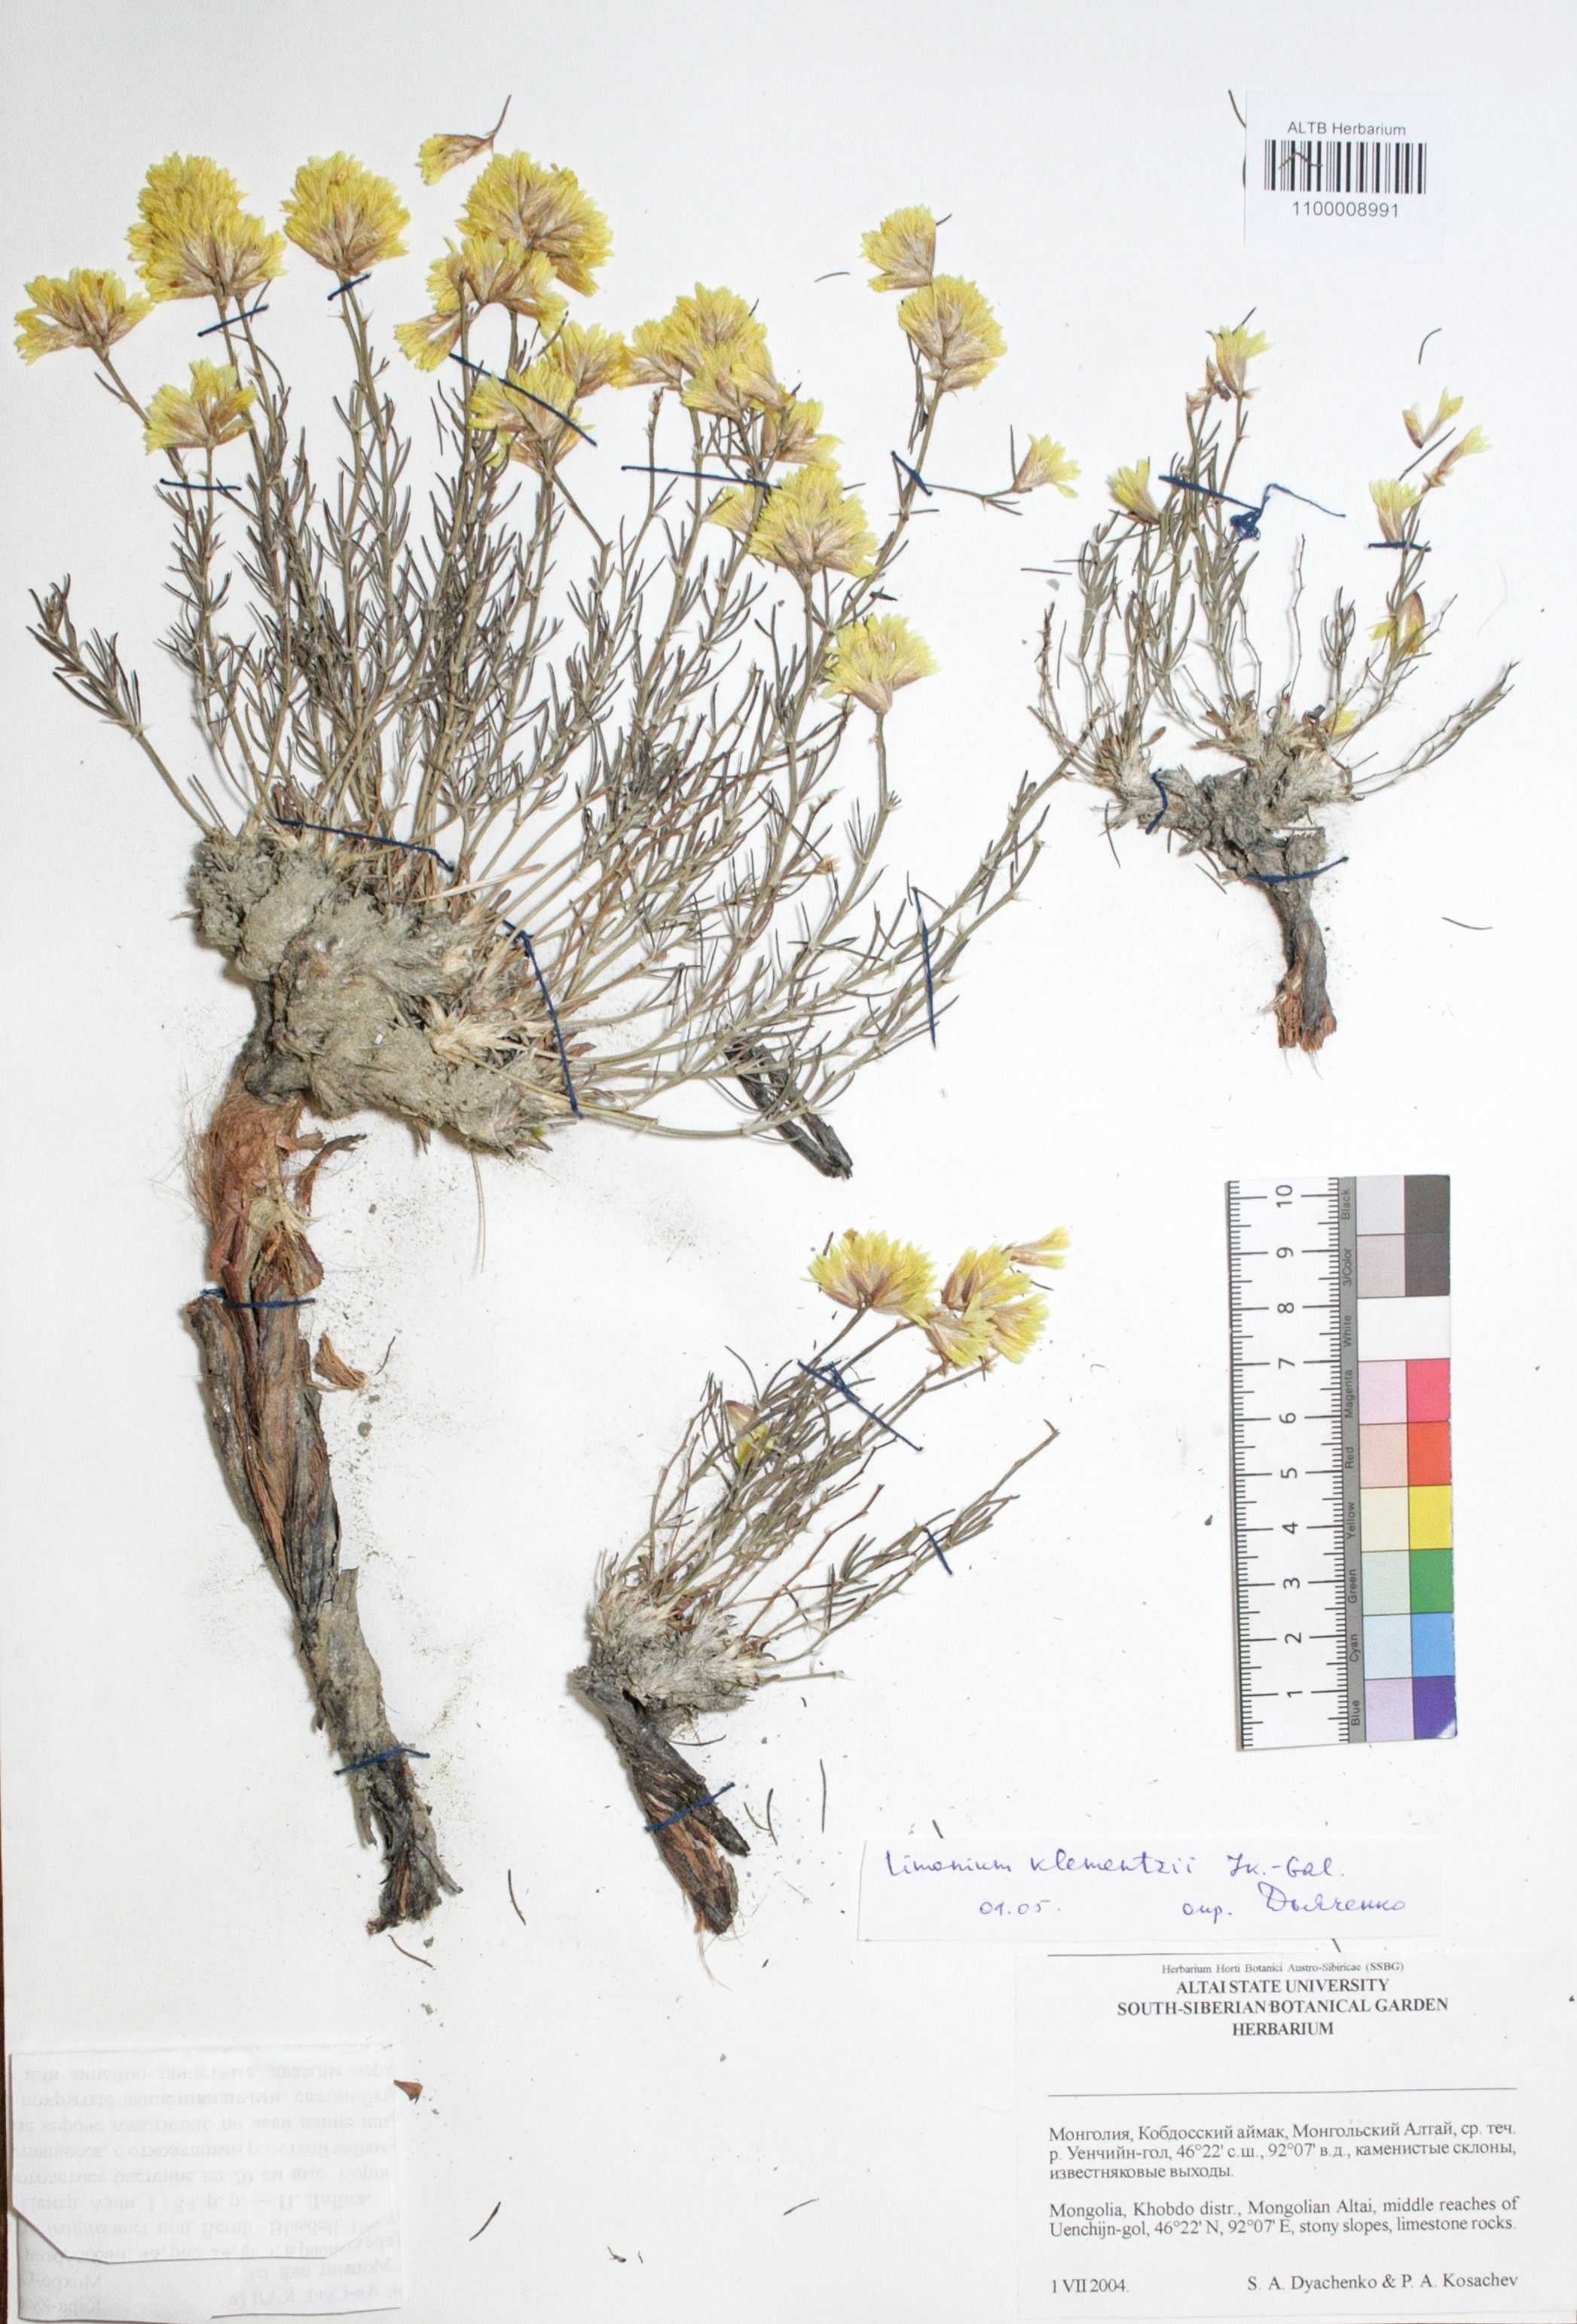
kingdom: Plantae
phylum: Tracheophyta
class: Magnoliopsida
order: Caryophyllales
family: Plumbaginaceae
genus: Limonium
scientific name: Limonium gmelini
